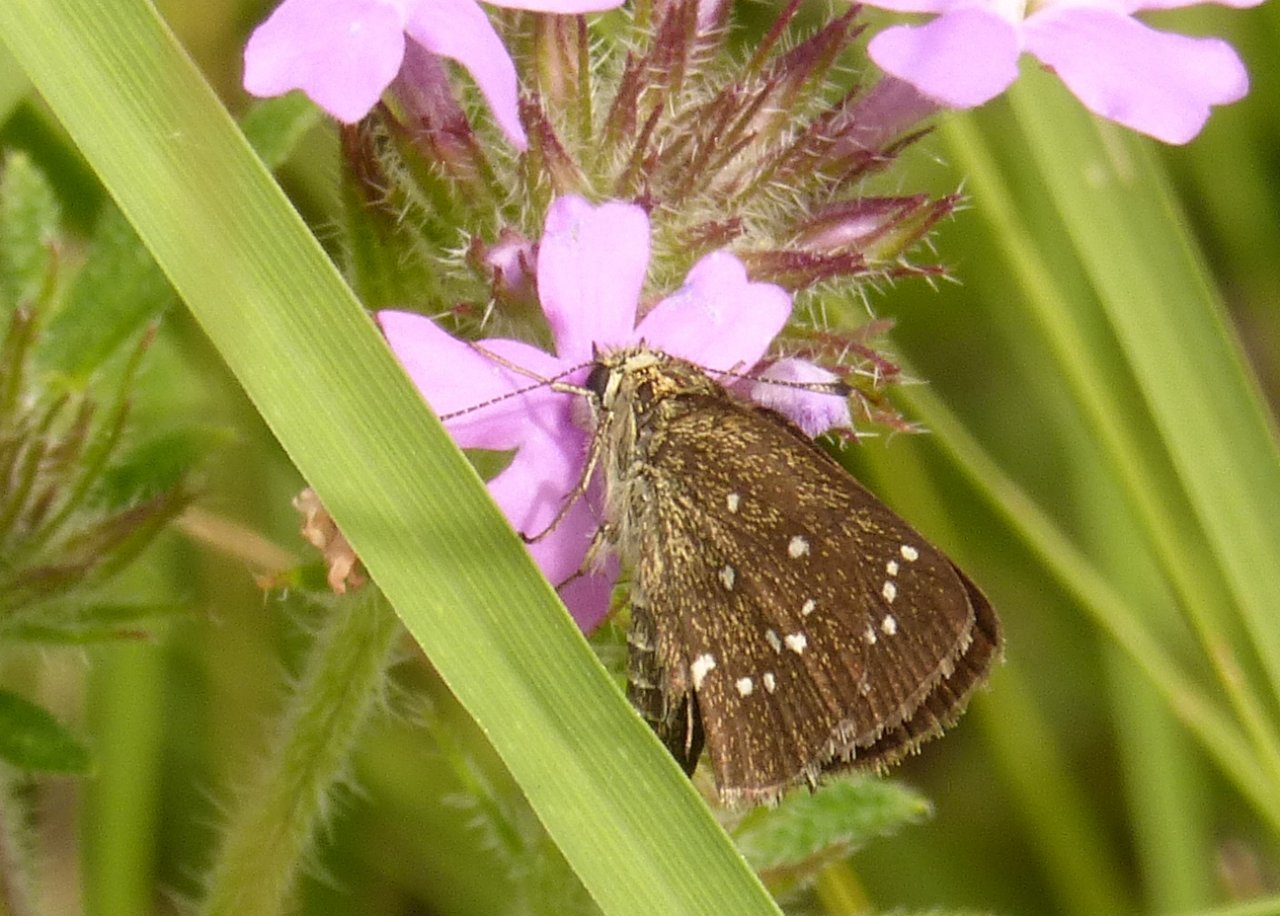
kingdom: Animalia
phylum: Arthropoda
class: Insecta
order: Lepidoptera
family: Hesperiidae
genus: Mastor
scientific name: Mastor elissa
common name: Elissa Roadside-Skipper
